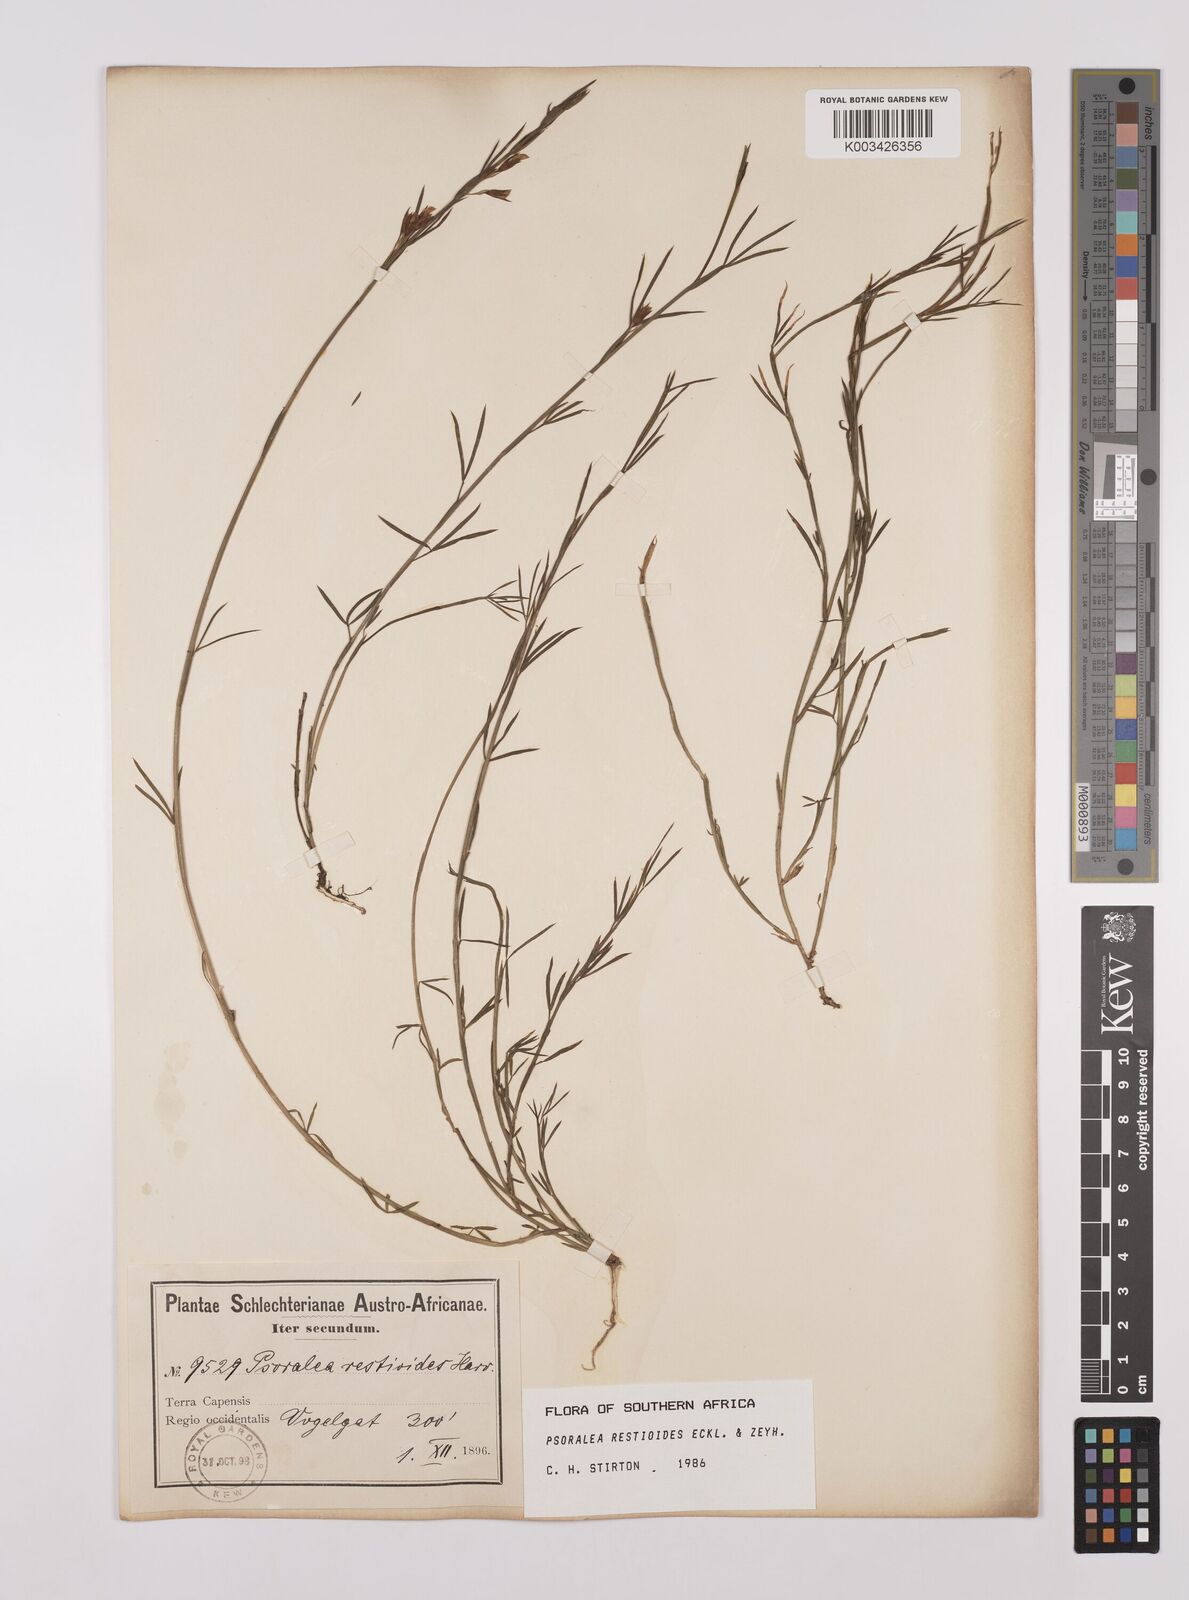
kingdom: Plantae
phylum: Tracheophyta
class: Magnoliopsida
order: Fabales
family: Fabaceae
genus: Psoralea
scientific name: Psoralea restioides
